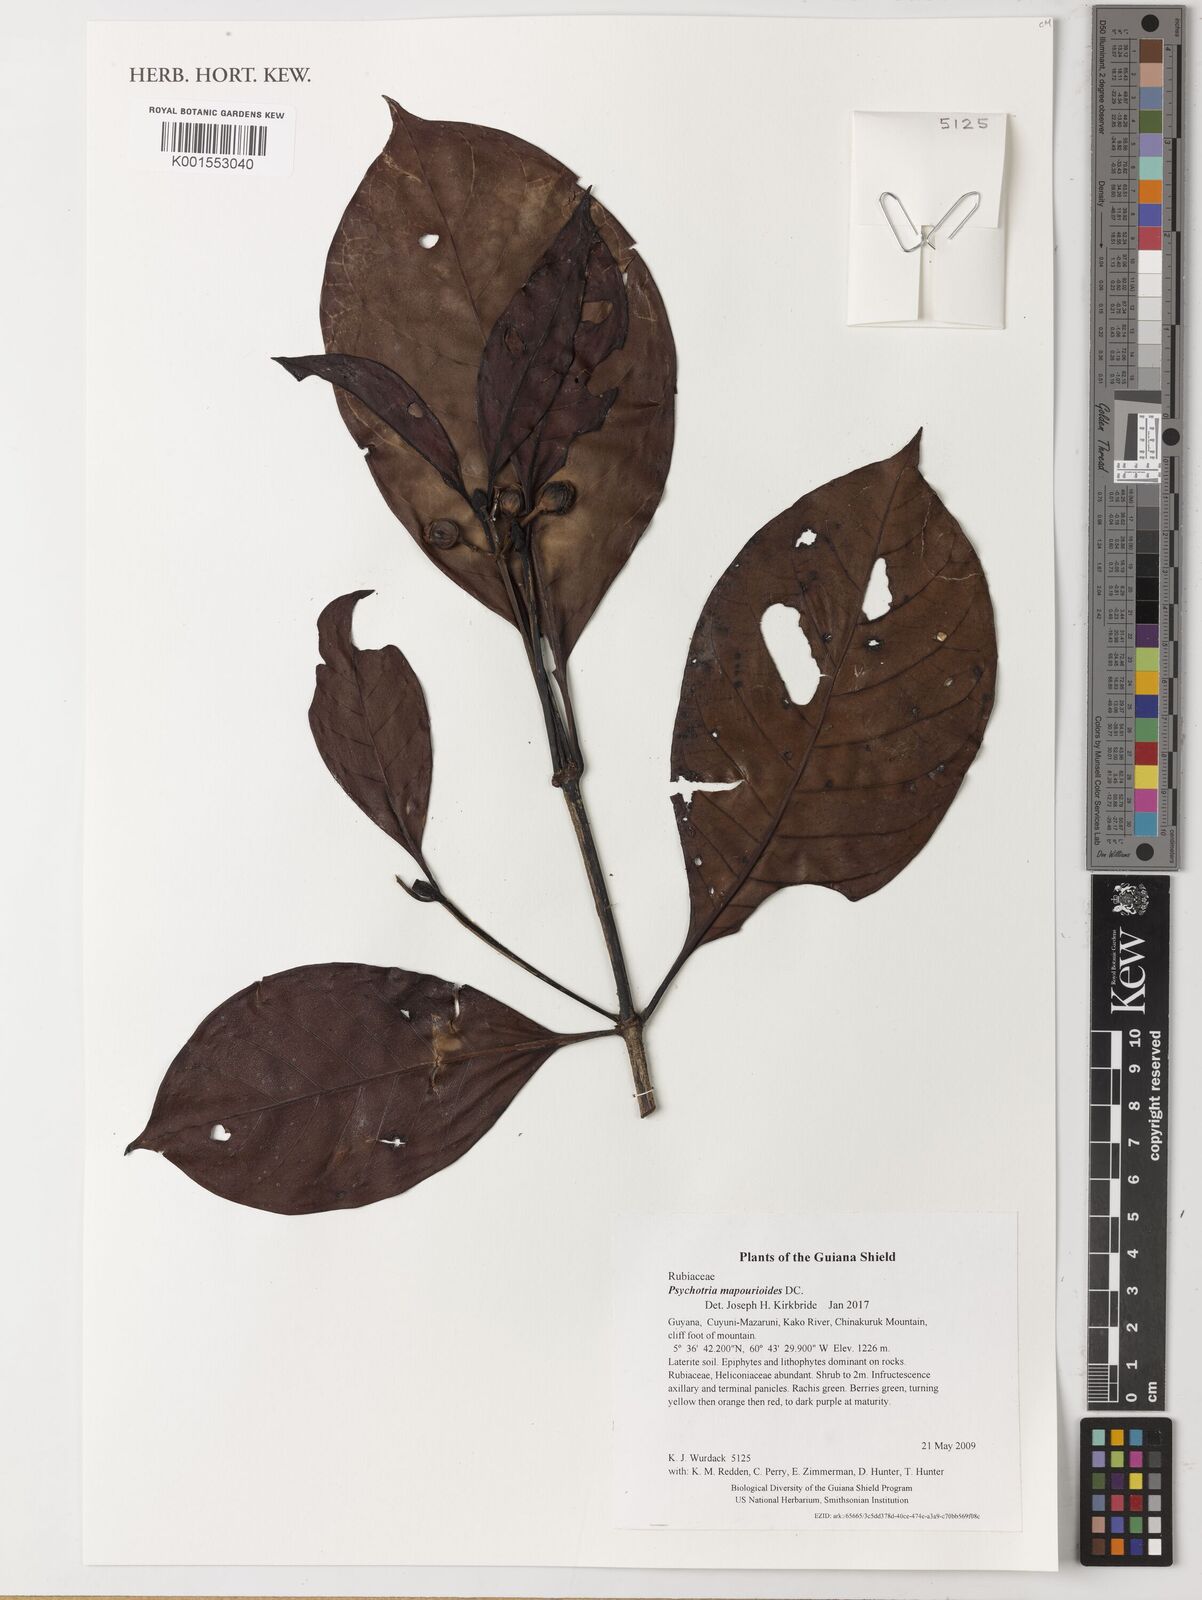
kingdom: Plantae
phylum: Tracheophyta
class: Magnoliopsida
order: Gentianales
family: Rubiaceae
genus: Psychotria
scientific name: Psychotria pedunculosa
